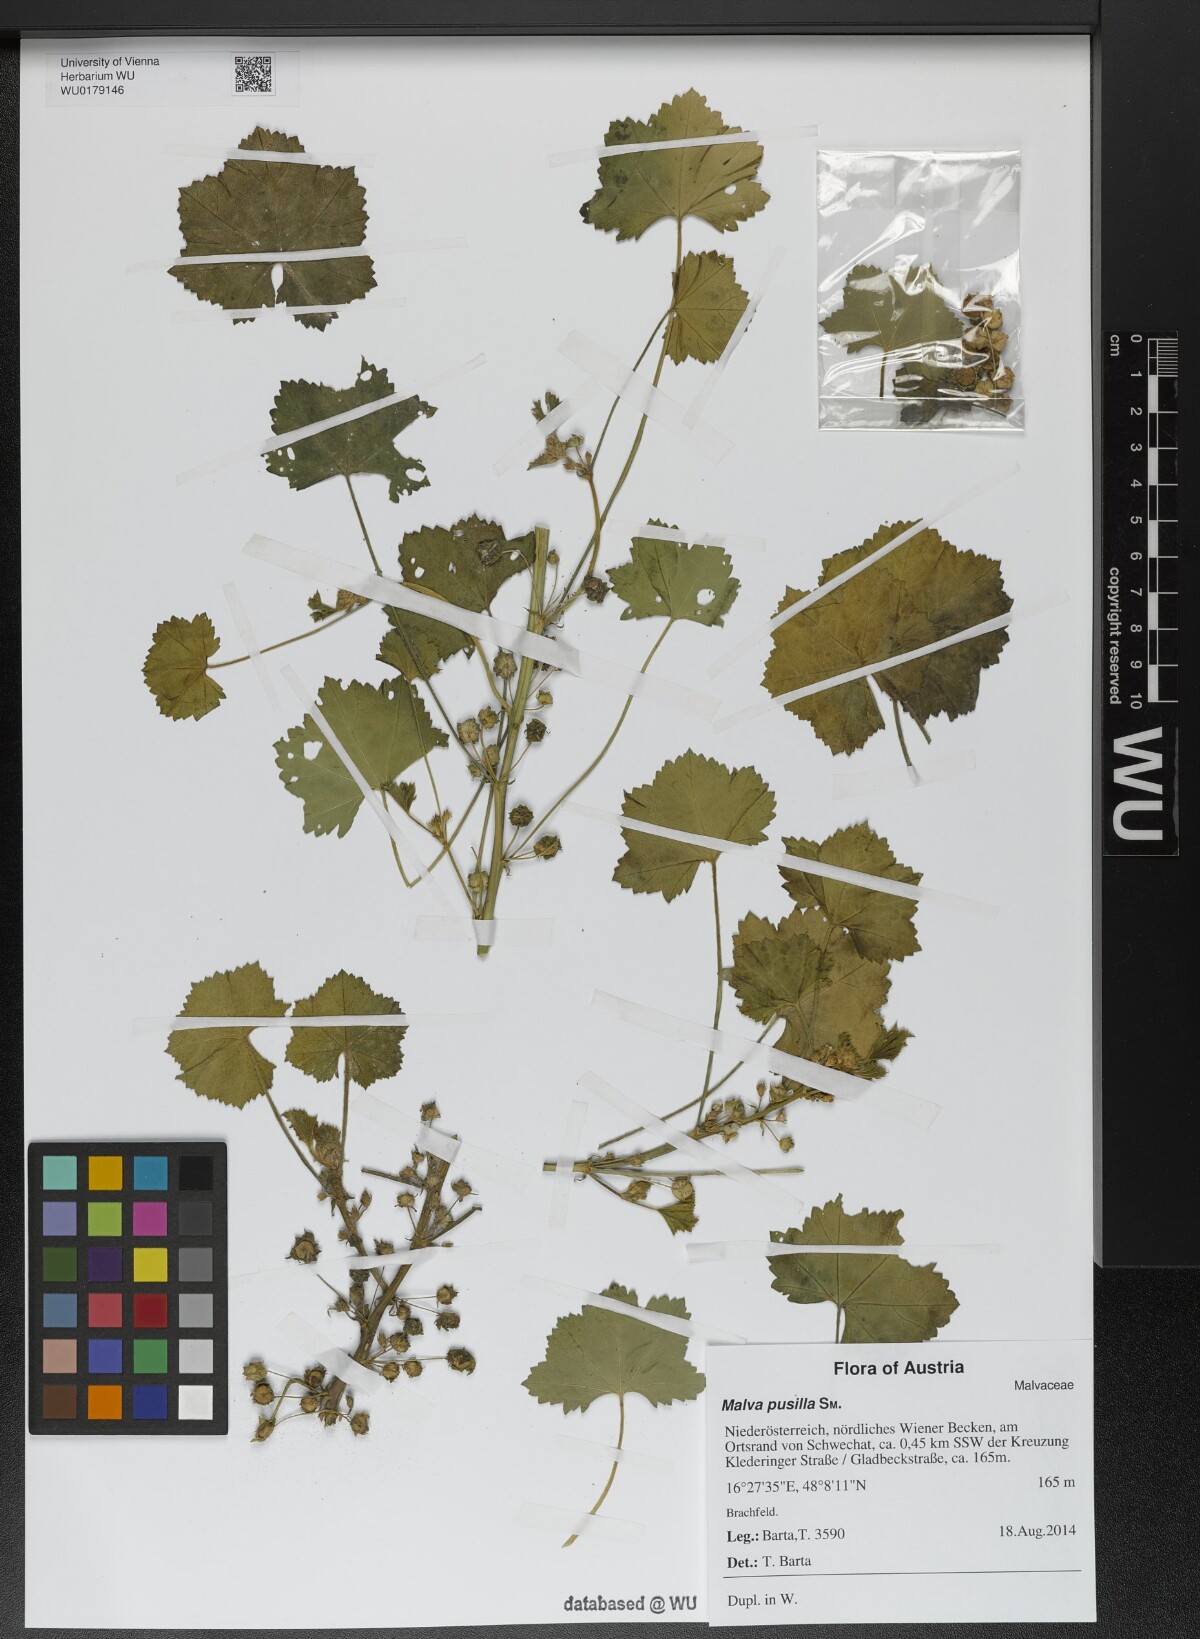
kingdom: Plantae
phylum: Tracheophyta
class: Magnoliopsida
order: Malvales
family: Malvaceae
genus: Malva
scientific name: Malva pusilla
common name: Small mallow
